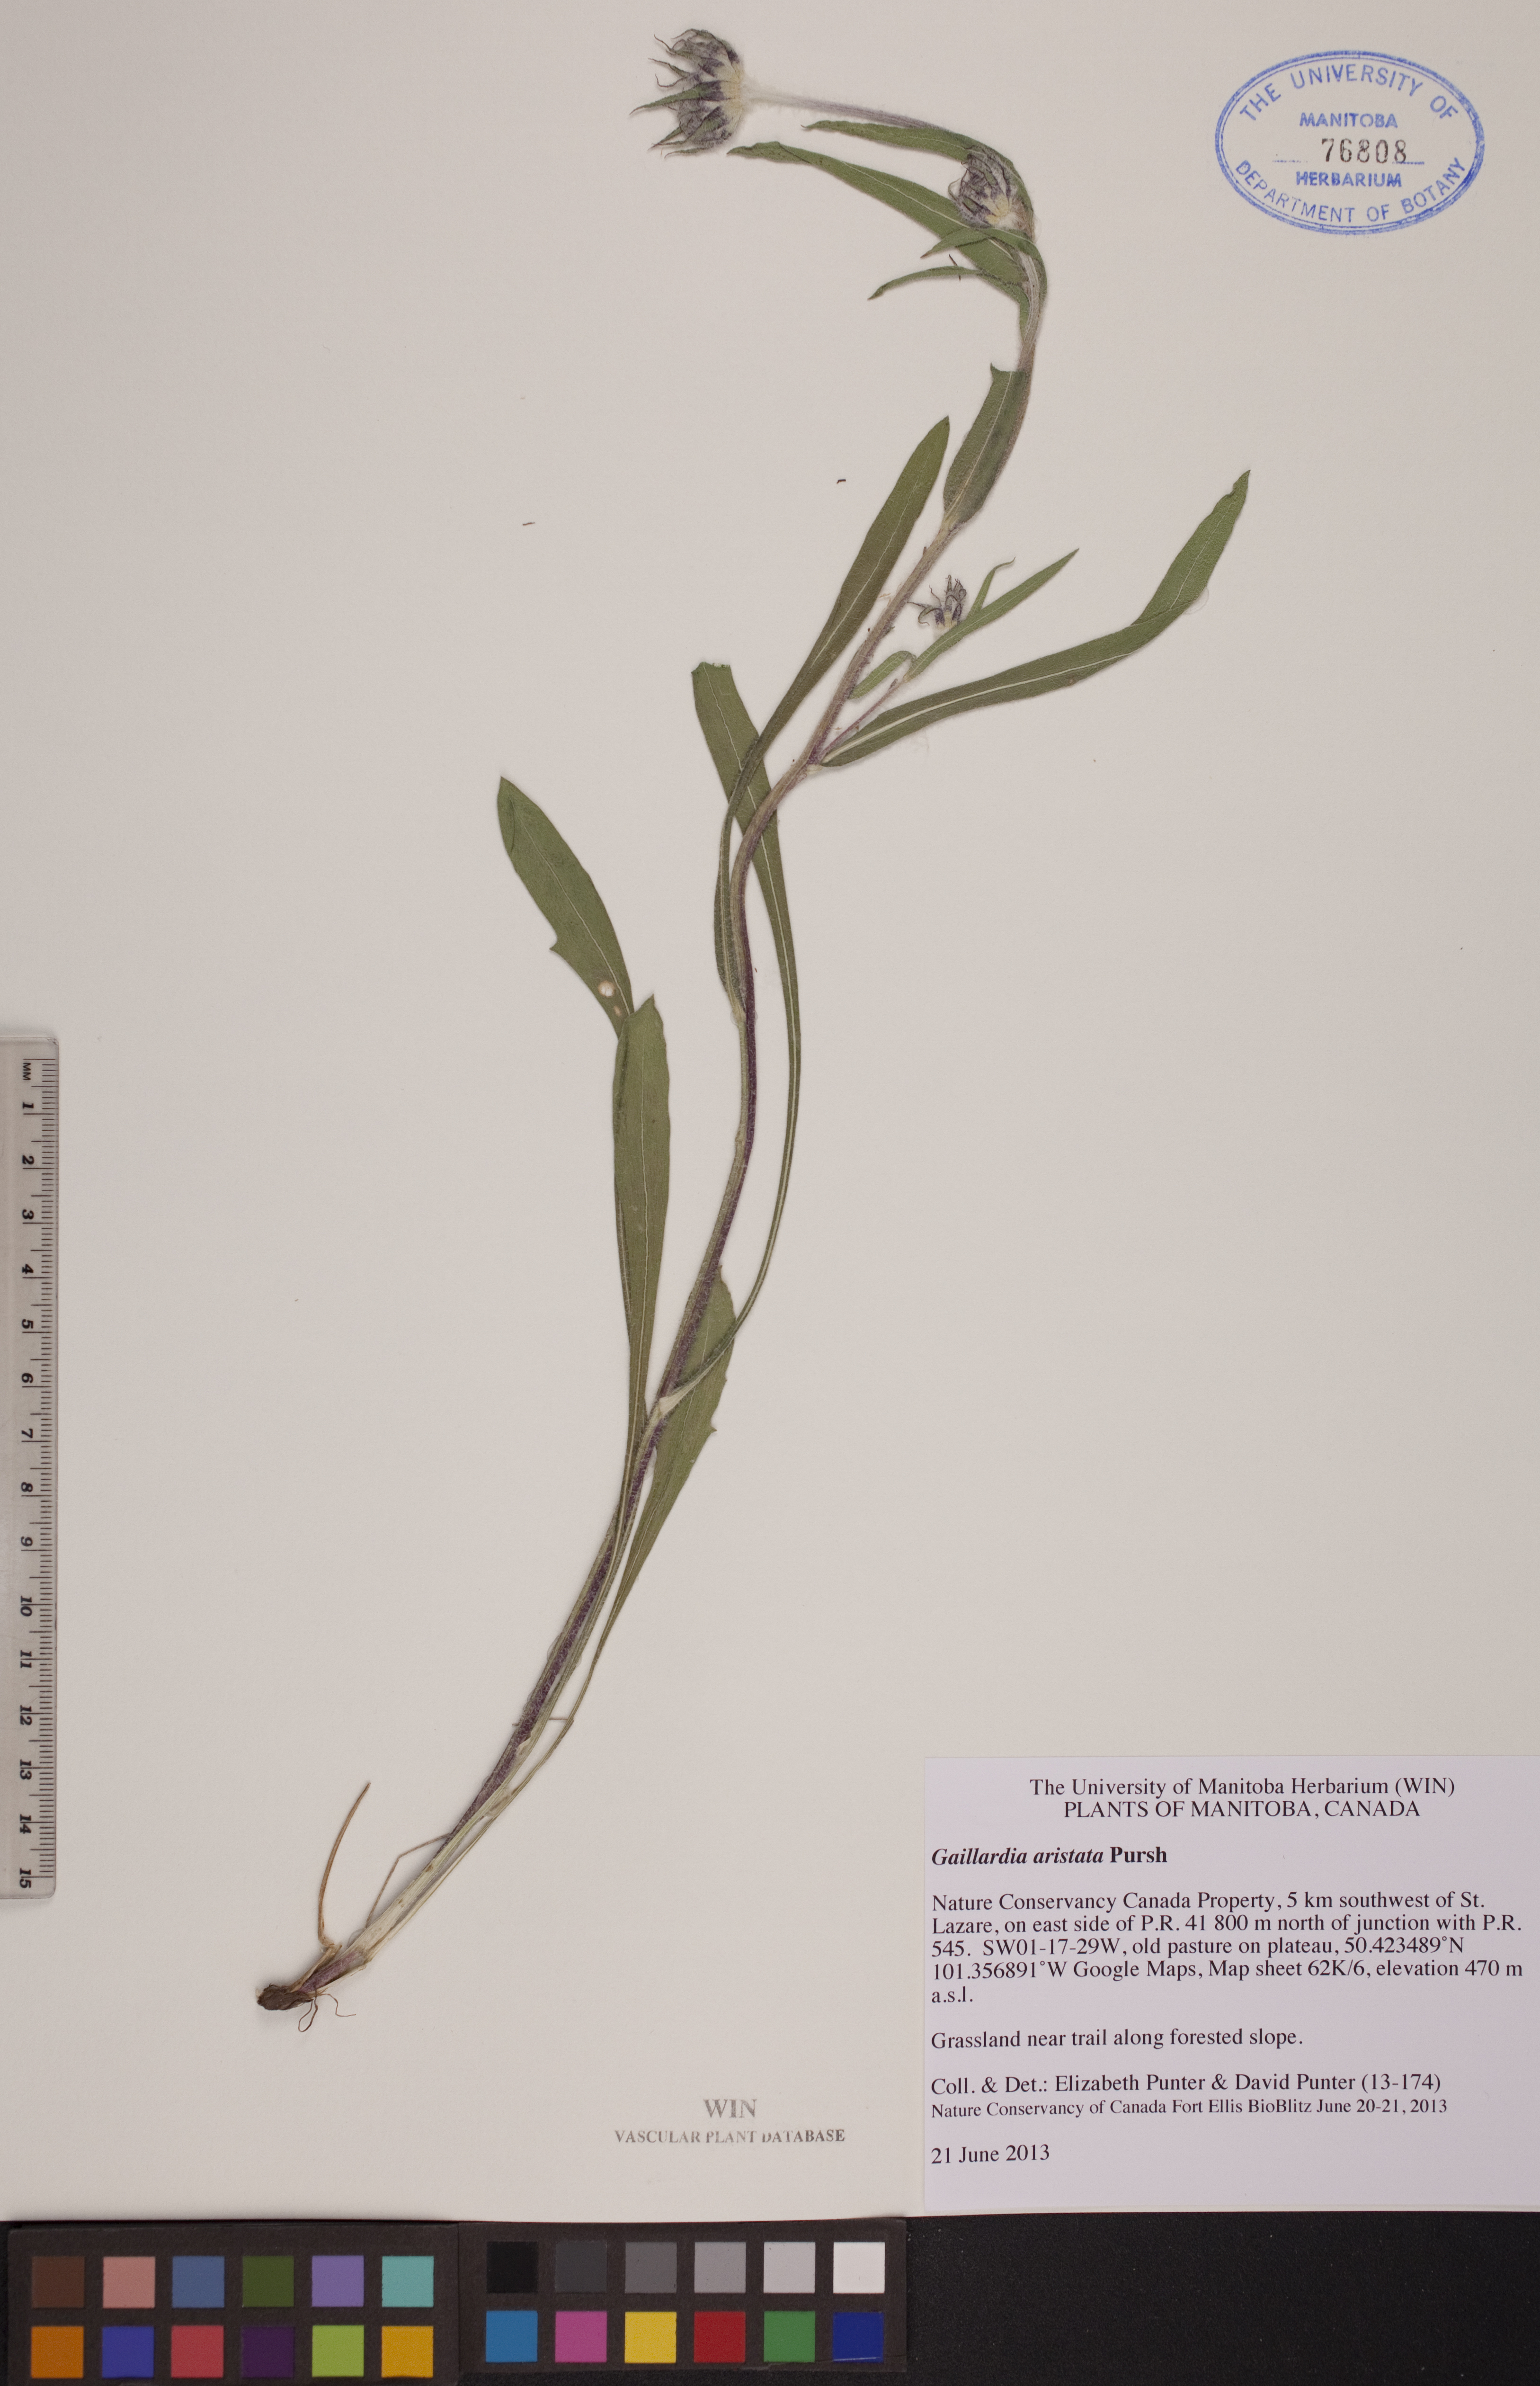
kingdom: Plantae
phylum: Tracheophyta
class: Magnoliopsida
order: Asterales
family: Asteraceae
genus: Gaillardia
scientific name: Gaillardia aristata
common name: Blanket-flower
